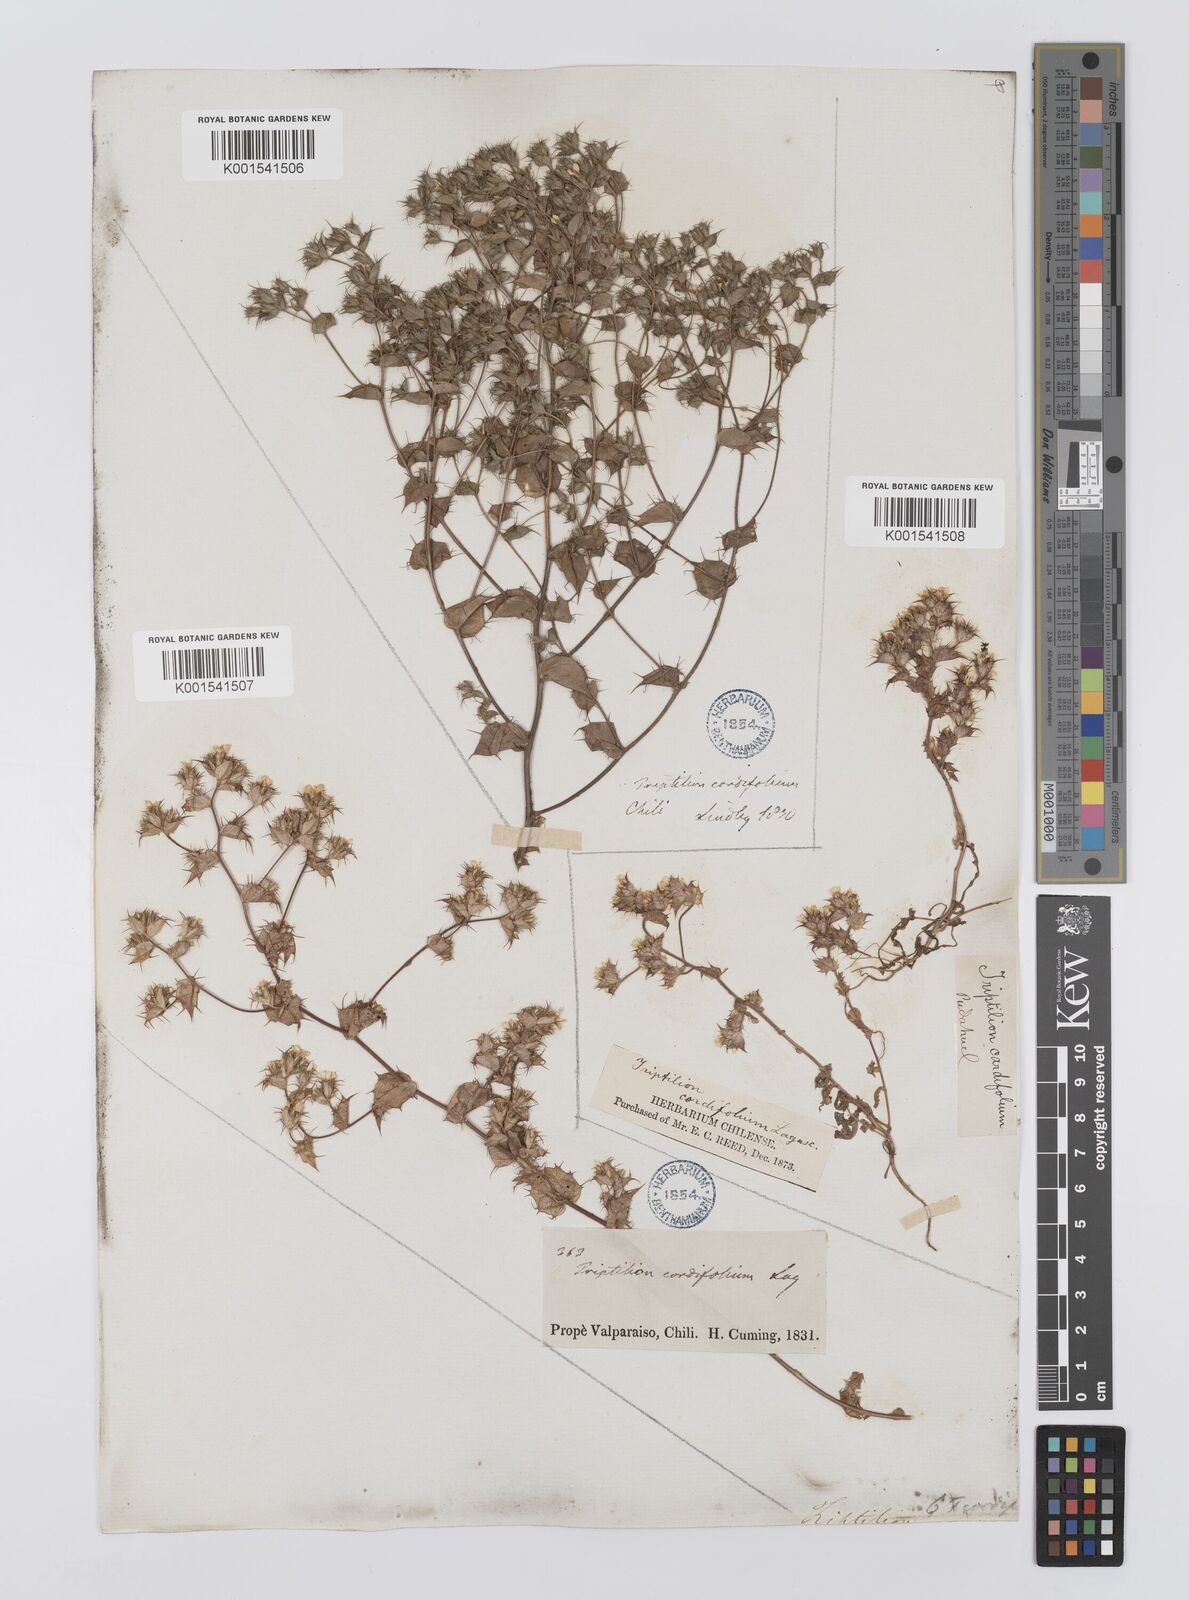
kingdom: Plantae
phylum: Tracheophyta
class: Magnoliopsida
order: Asterales
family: Asteraceae
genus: Triptilion
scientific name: Triptilion cordifolium
